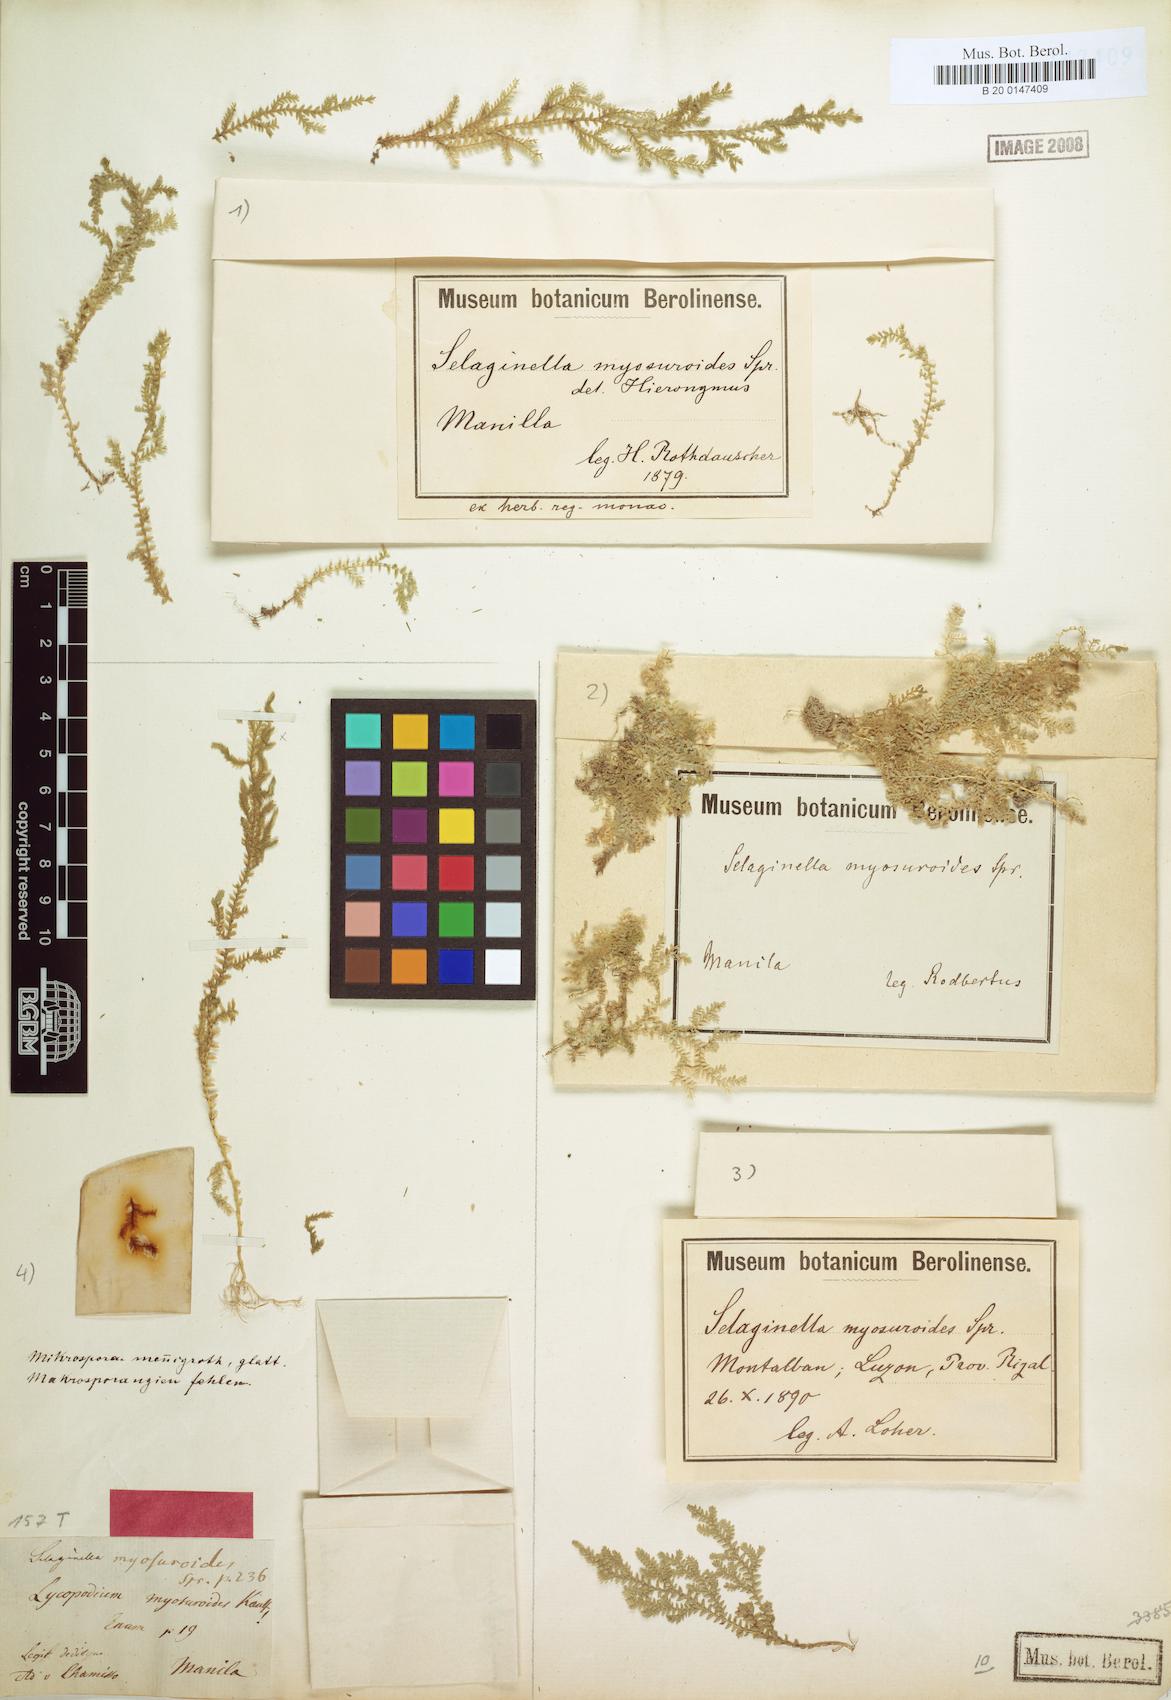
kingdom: Plantae
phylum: Tracheophyta
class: Lycopodiopsida
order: Selaginellales
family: Selaginellaceae
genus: Selaginella
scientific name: Selaginella myosuroides
